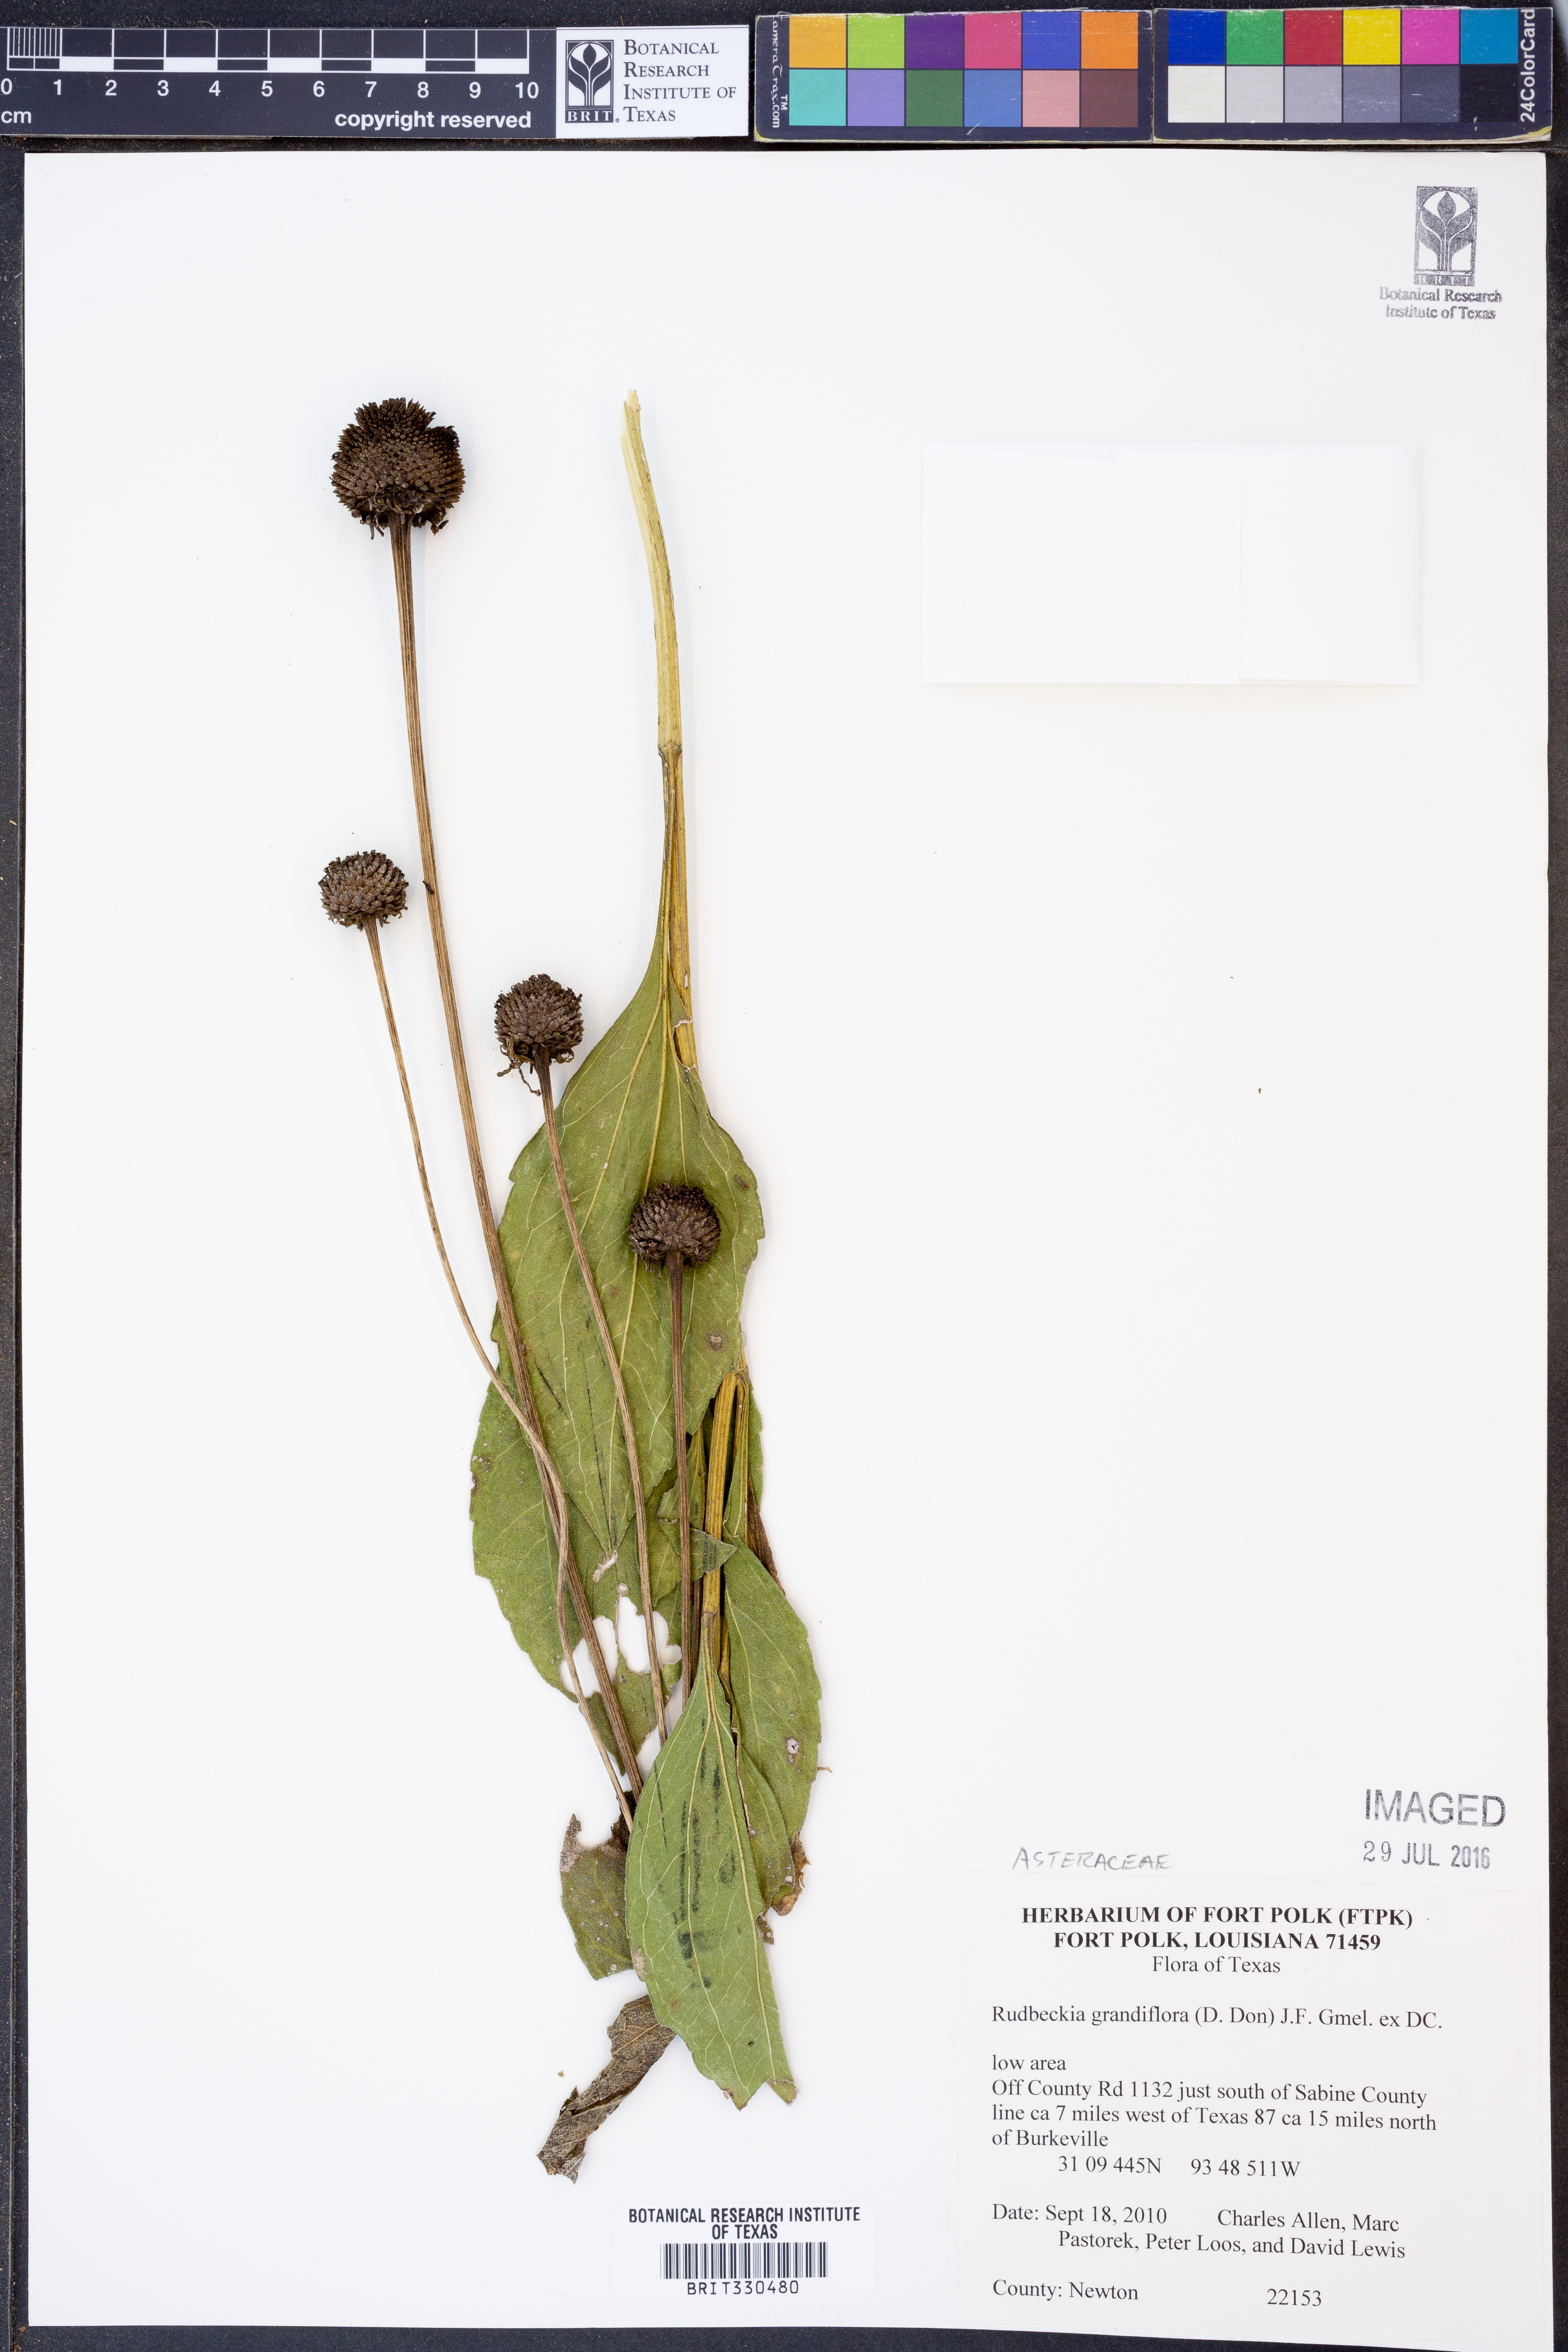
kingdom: Plantae
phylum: Tracheophyta
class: Magnoliopsida
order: Asterales
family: Asteraceae
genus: Rudbeckia
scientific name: Rudbeckia grandiflora
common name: Large-flowered coneflower
